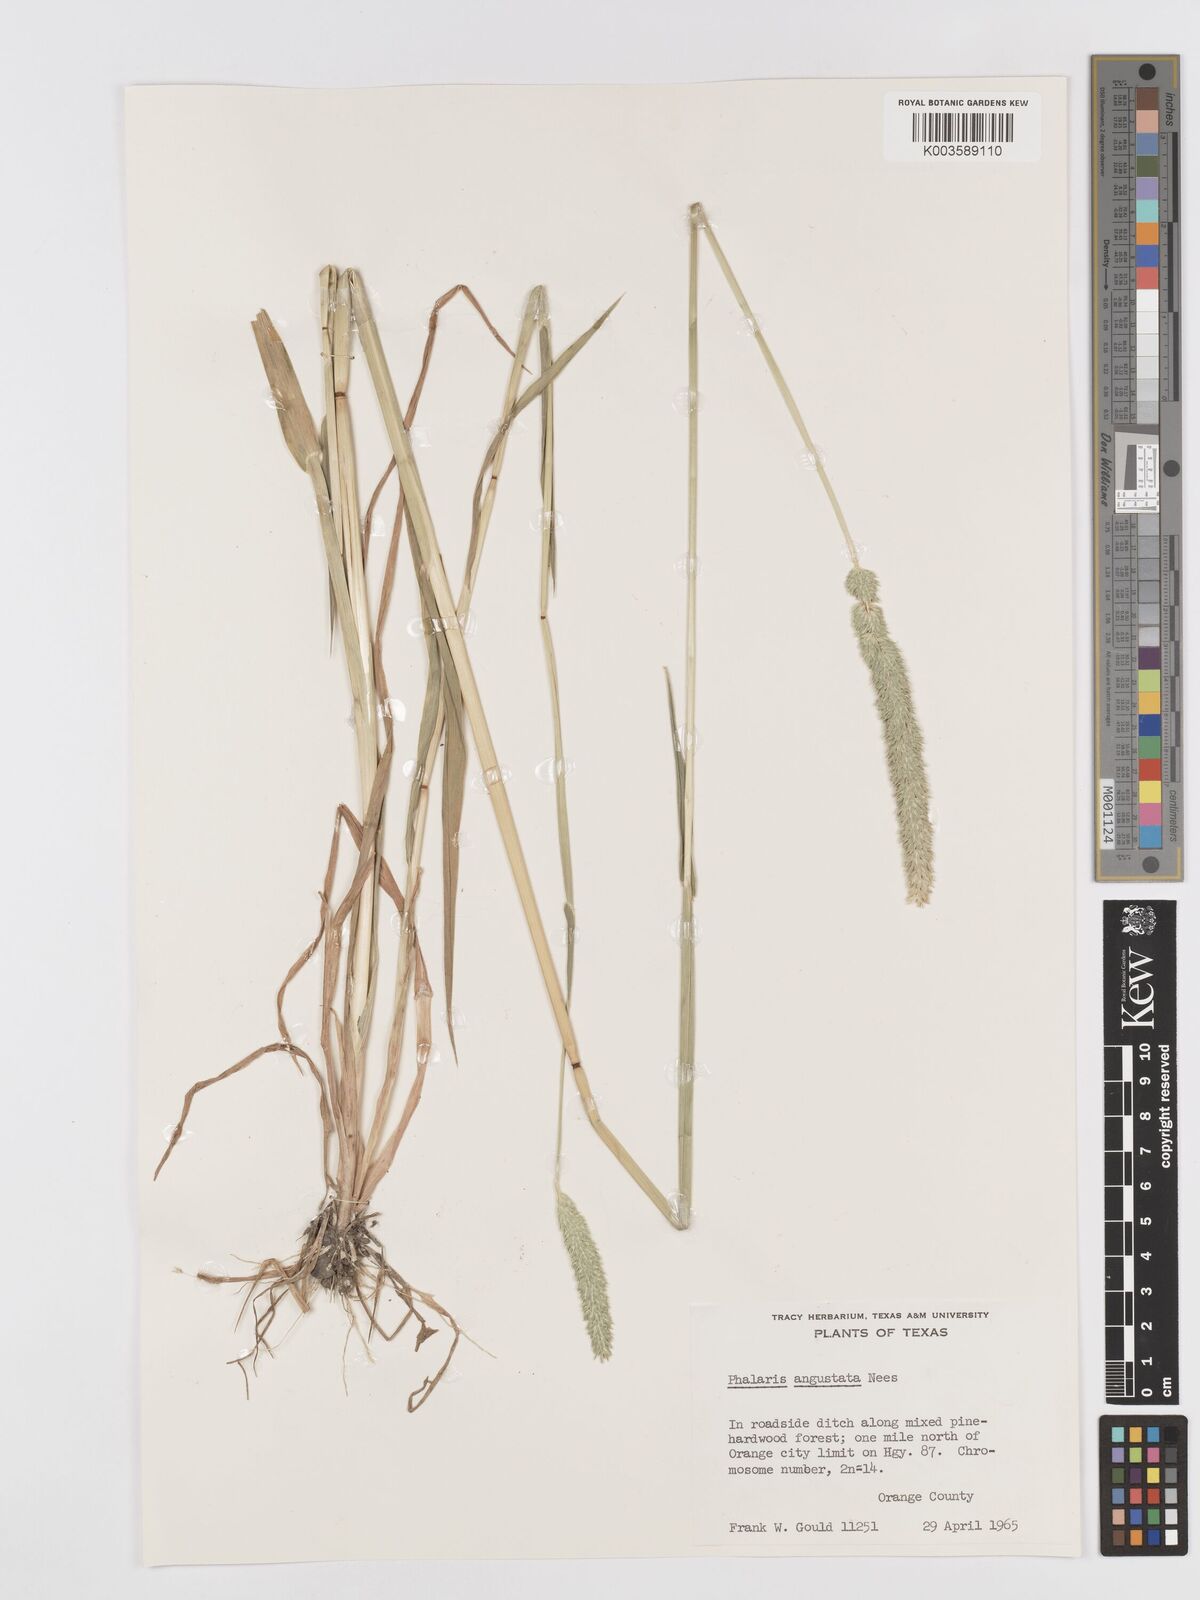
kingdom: Plantae
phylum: Tracheophyta
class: Liliopsida
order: Poales
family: Poaceae
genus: Phalaris
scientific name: Phalaris
